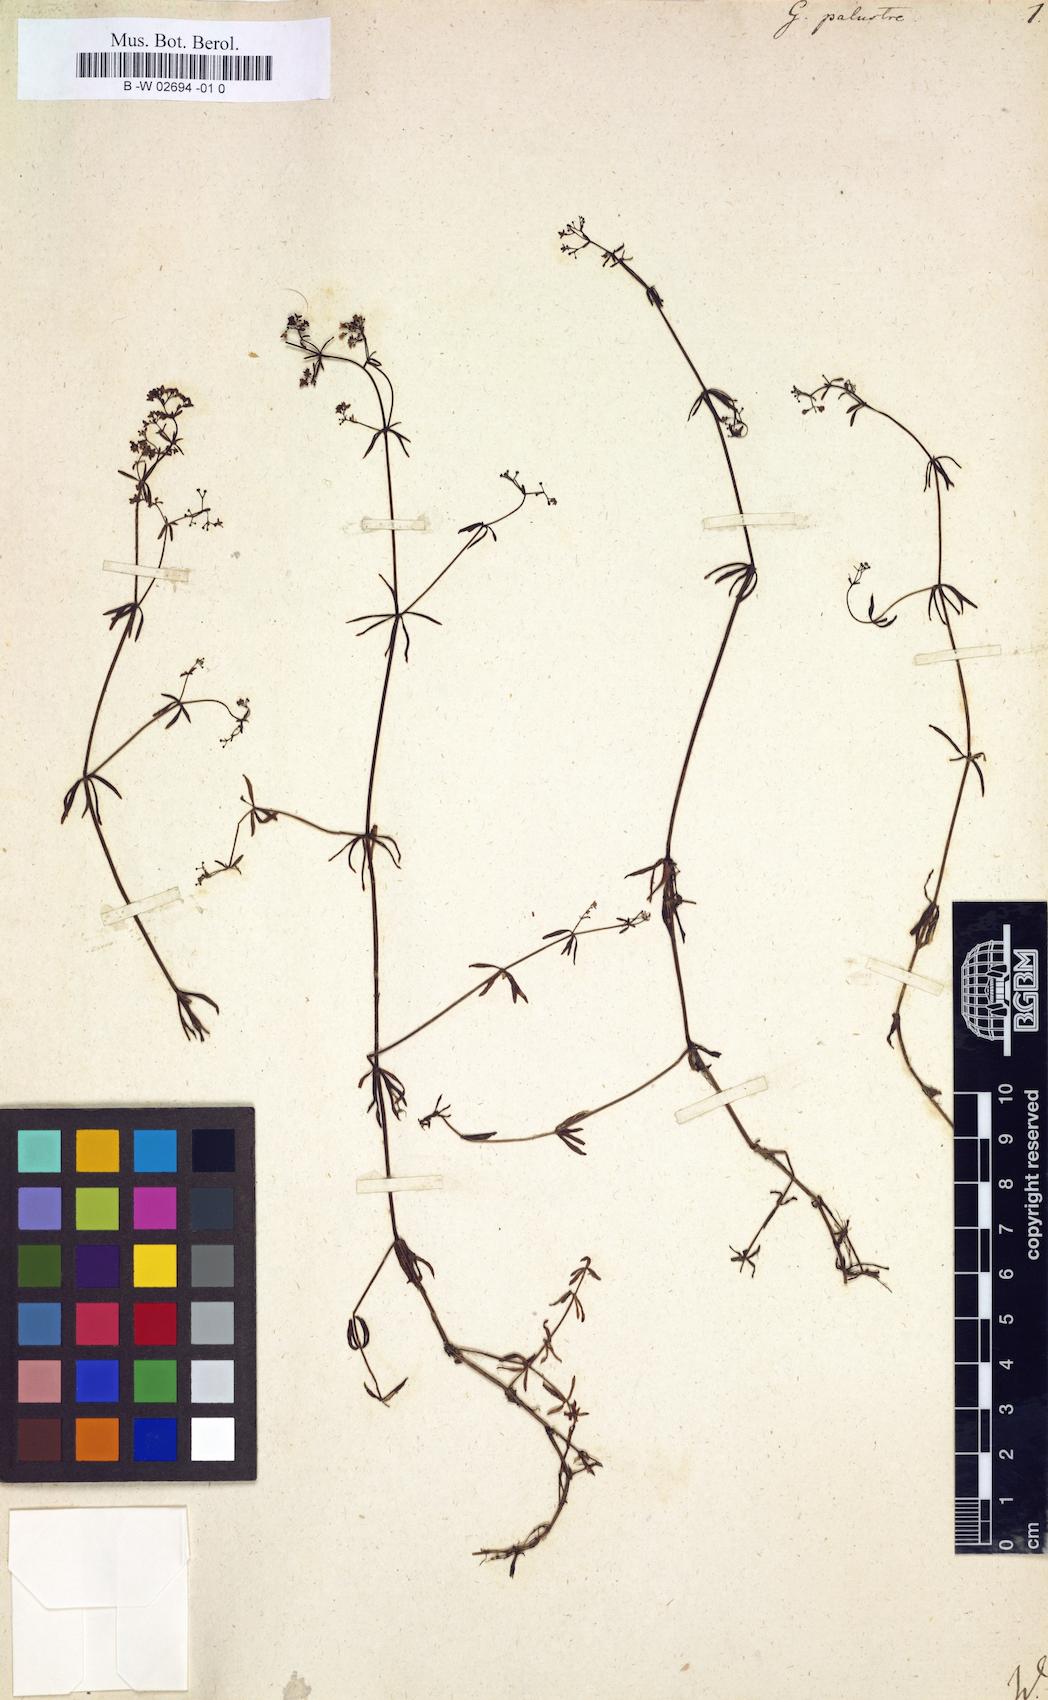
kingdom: Plantae
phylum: Tracheophyta
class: Magnoliopsida
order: Gentianales
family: Rubiaceae
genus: Galium
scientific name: Galium palustre
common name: Common marsh-bedstraw
